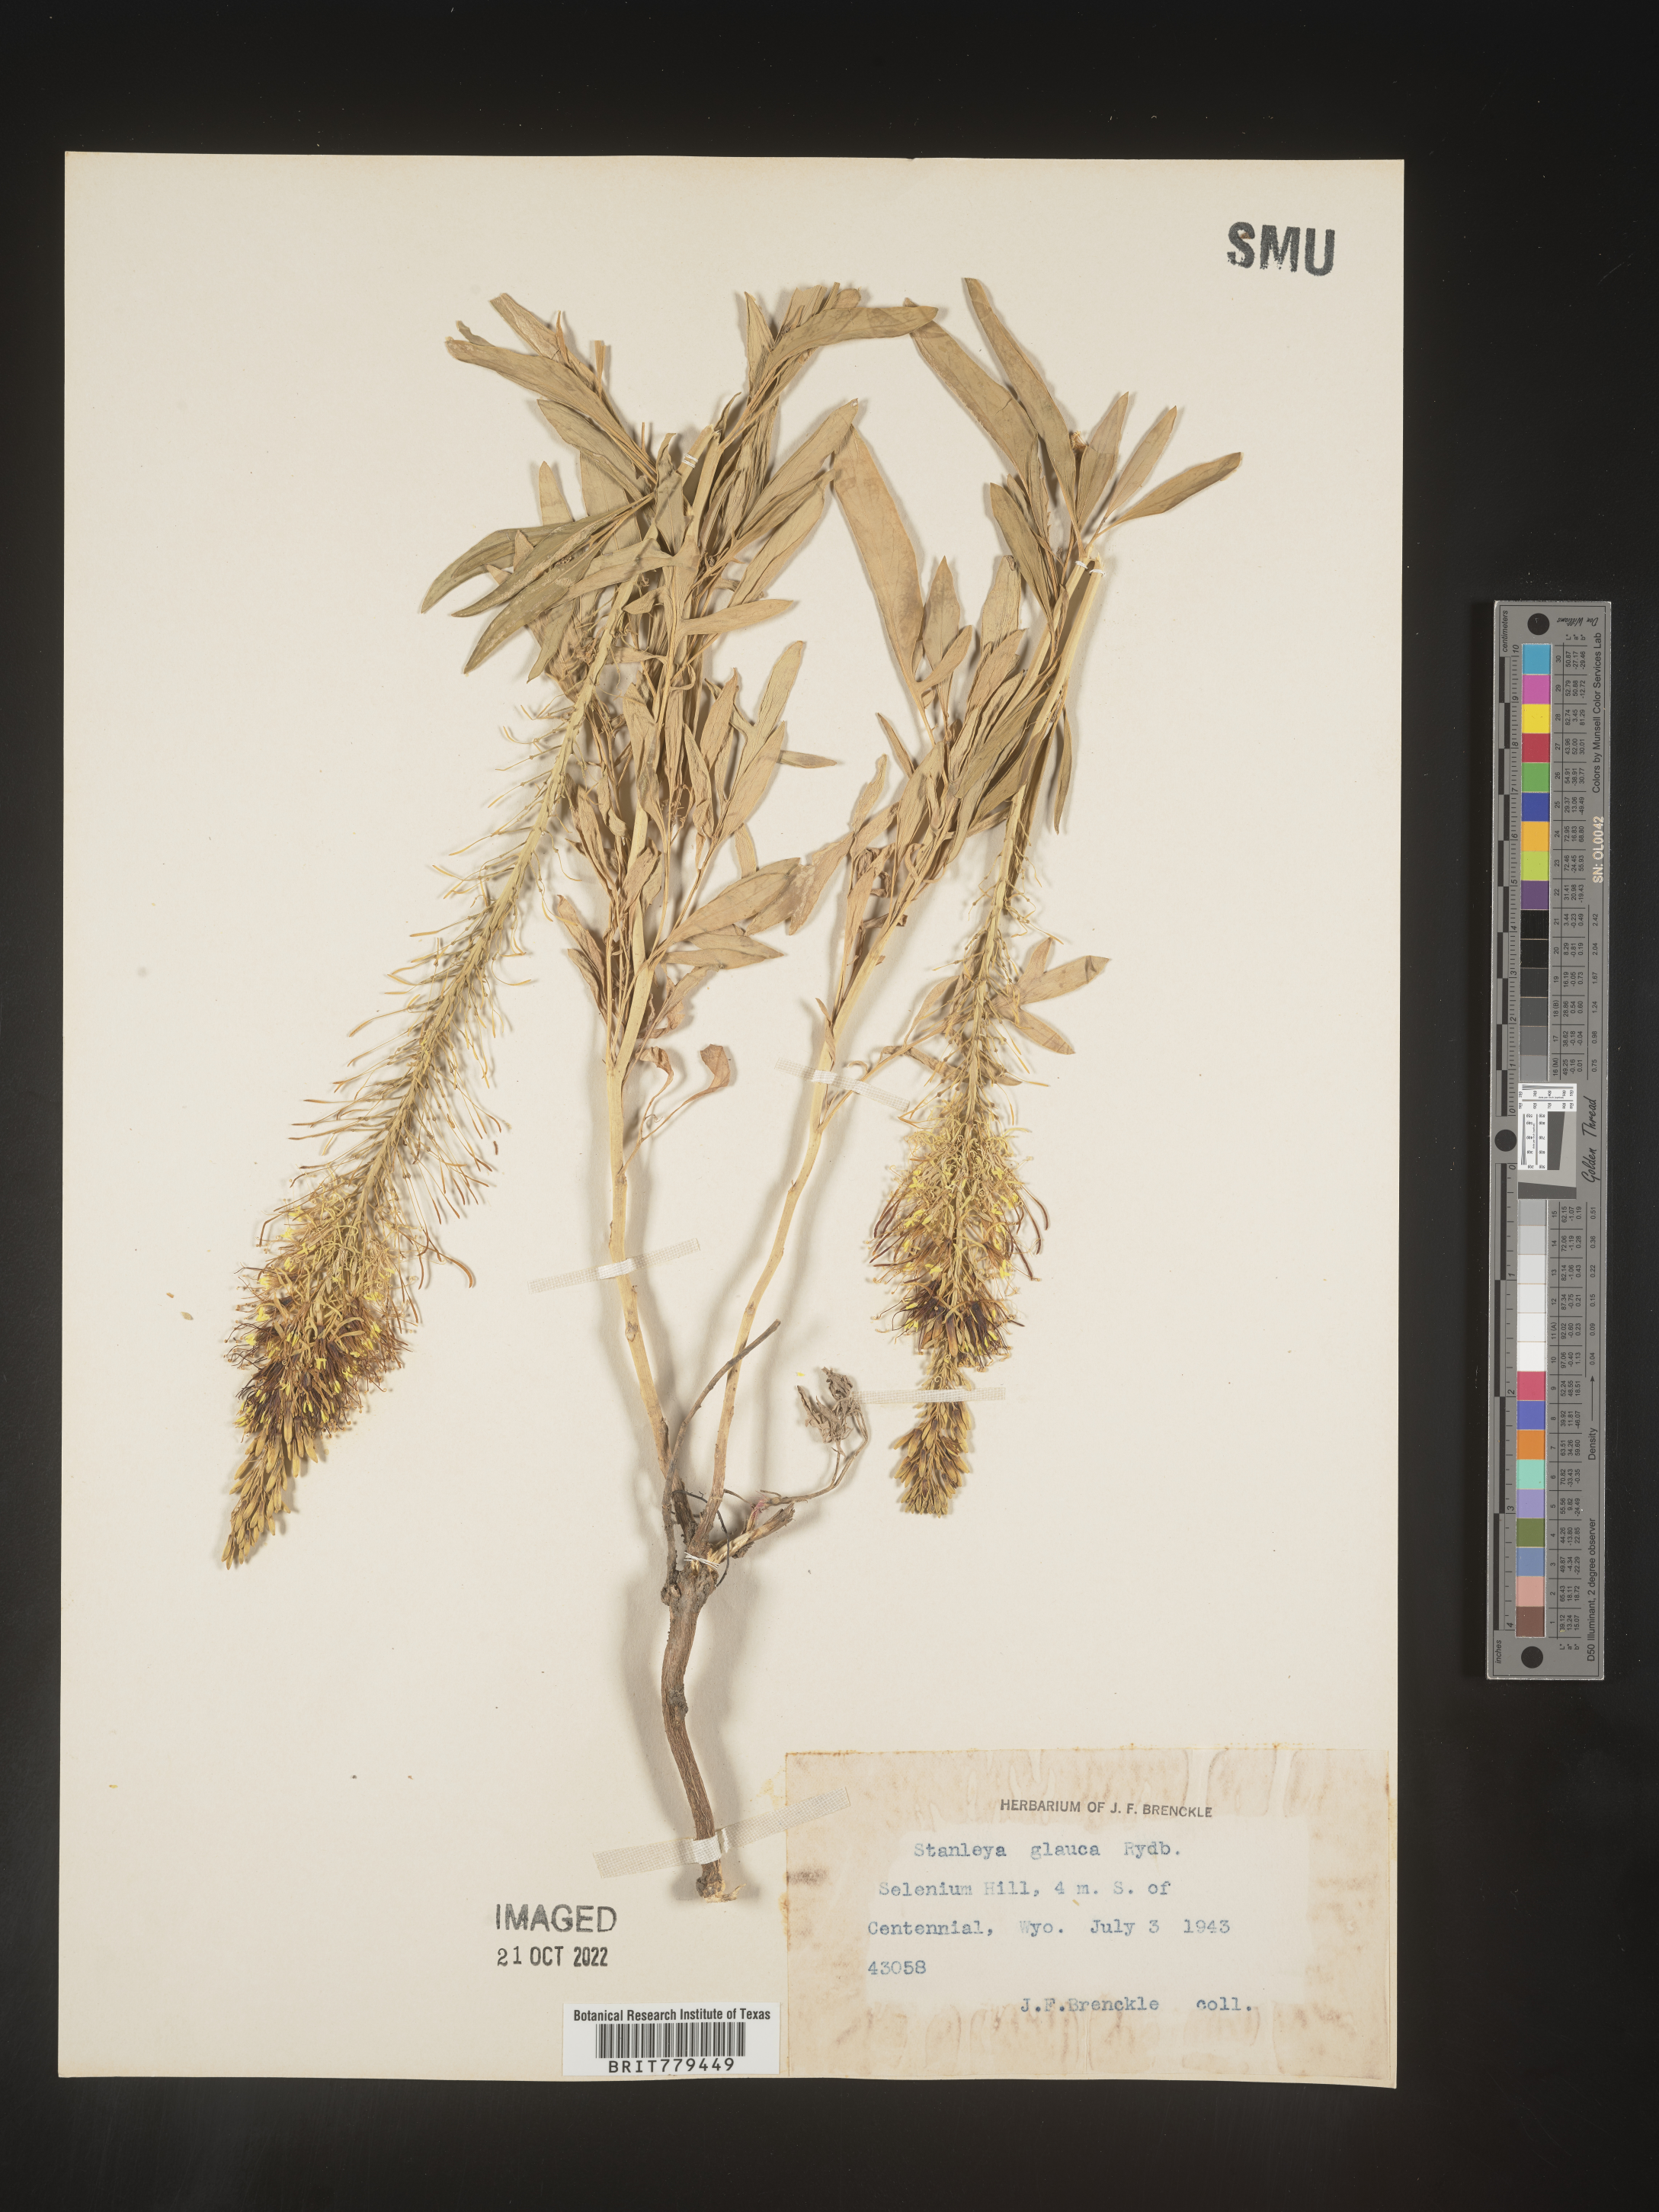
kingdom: Plantae
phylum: Tracheophyta
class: Magnoliopsida
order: Brassicales
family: Brassicaceae
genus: Stanleya
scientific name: Stanleya
